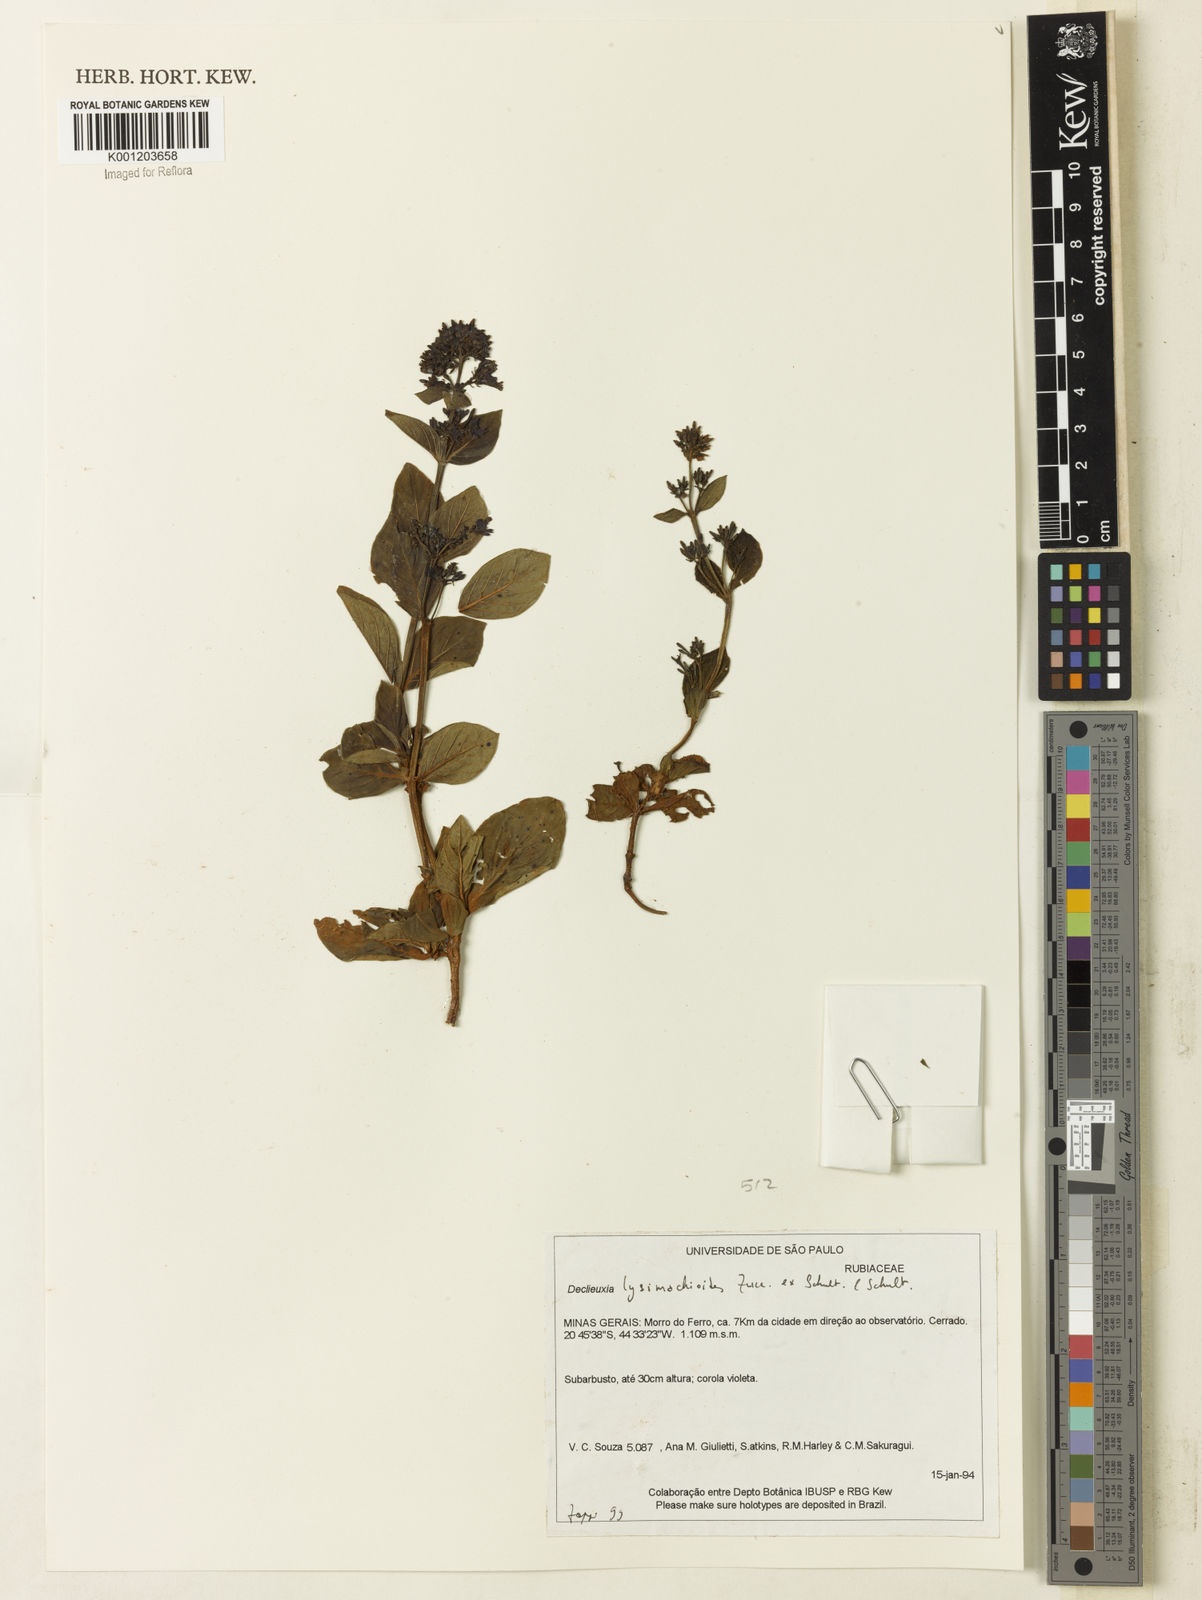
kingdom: Plantae
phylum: Tracheophyta
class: Magnoliopsida
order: Gentianales
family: Rubiaceae
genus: Declieuxia
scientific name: Declieuxia
